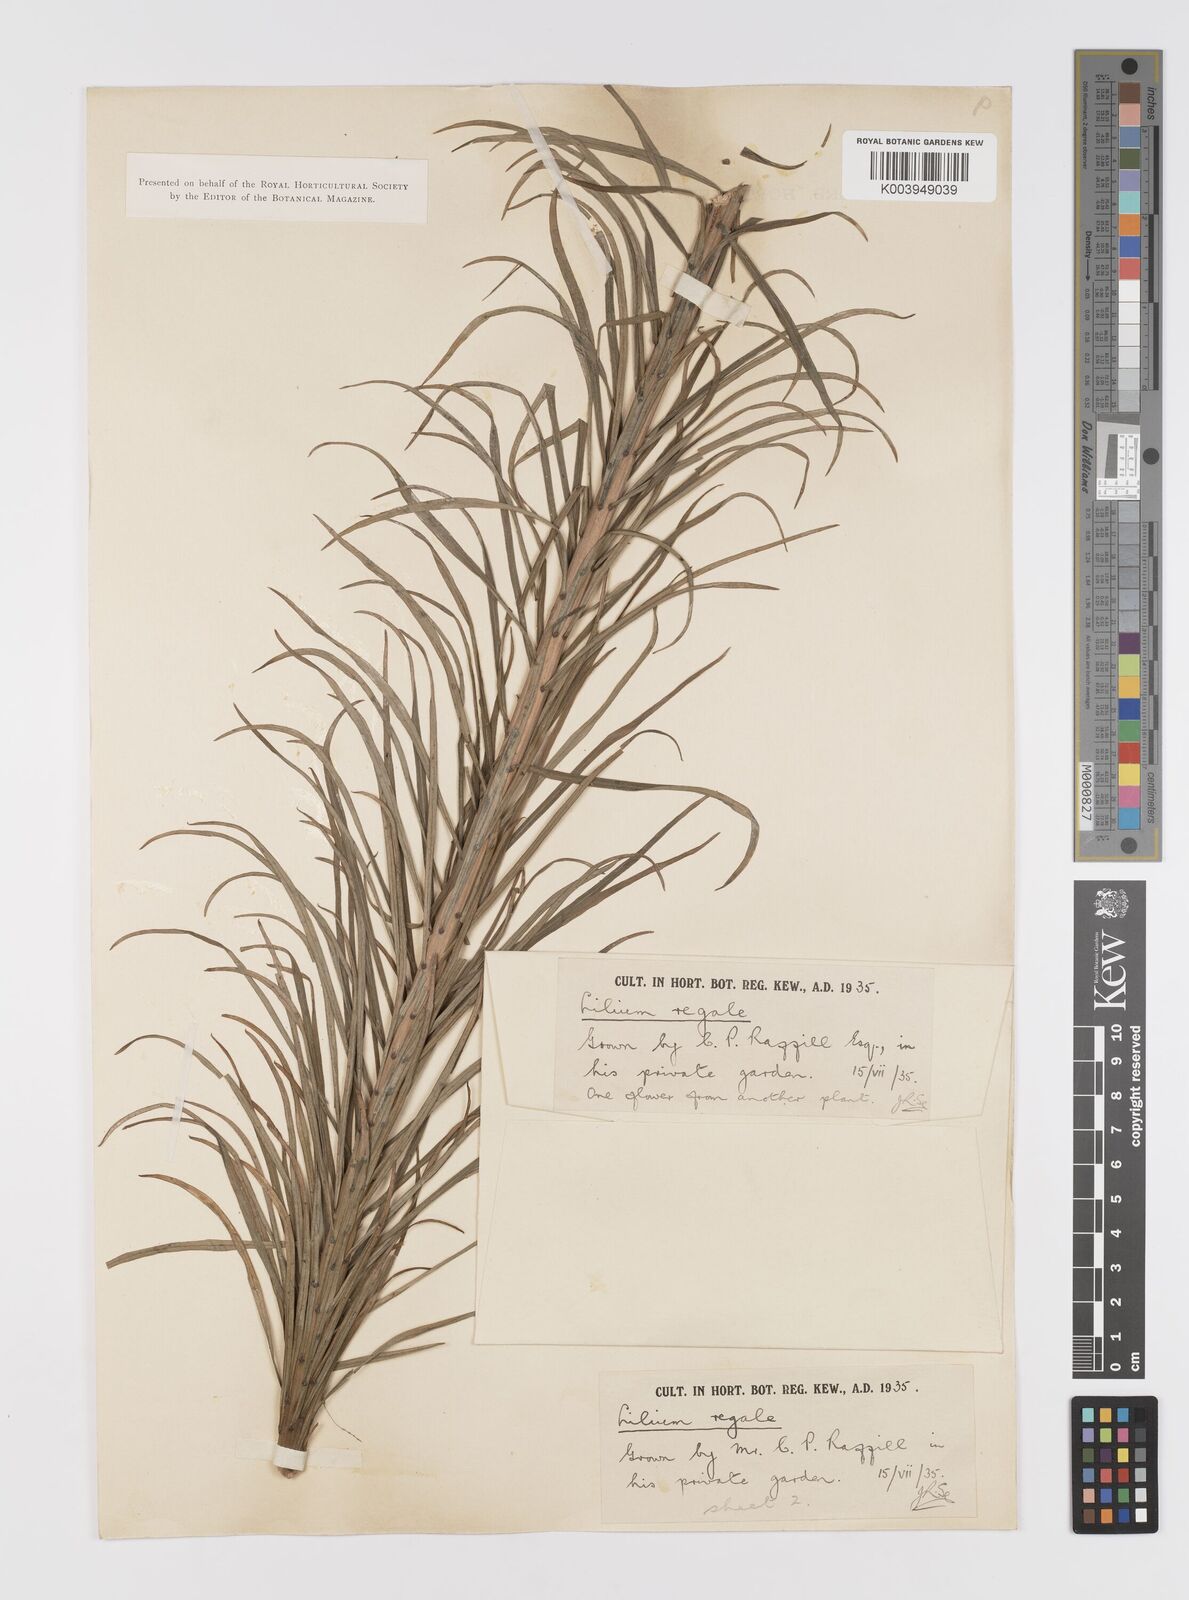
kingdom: Plantae
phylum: Tracheophyta
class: Liliopsida
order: Liliales
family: Liliaceae
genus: Lilium
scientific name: Lilium regale
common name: Regal lily
